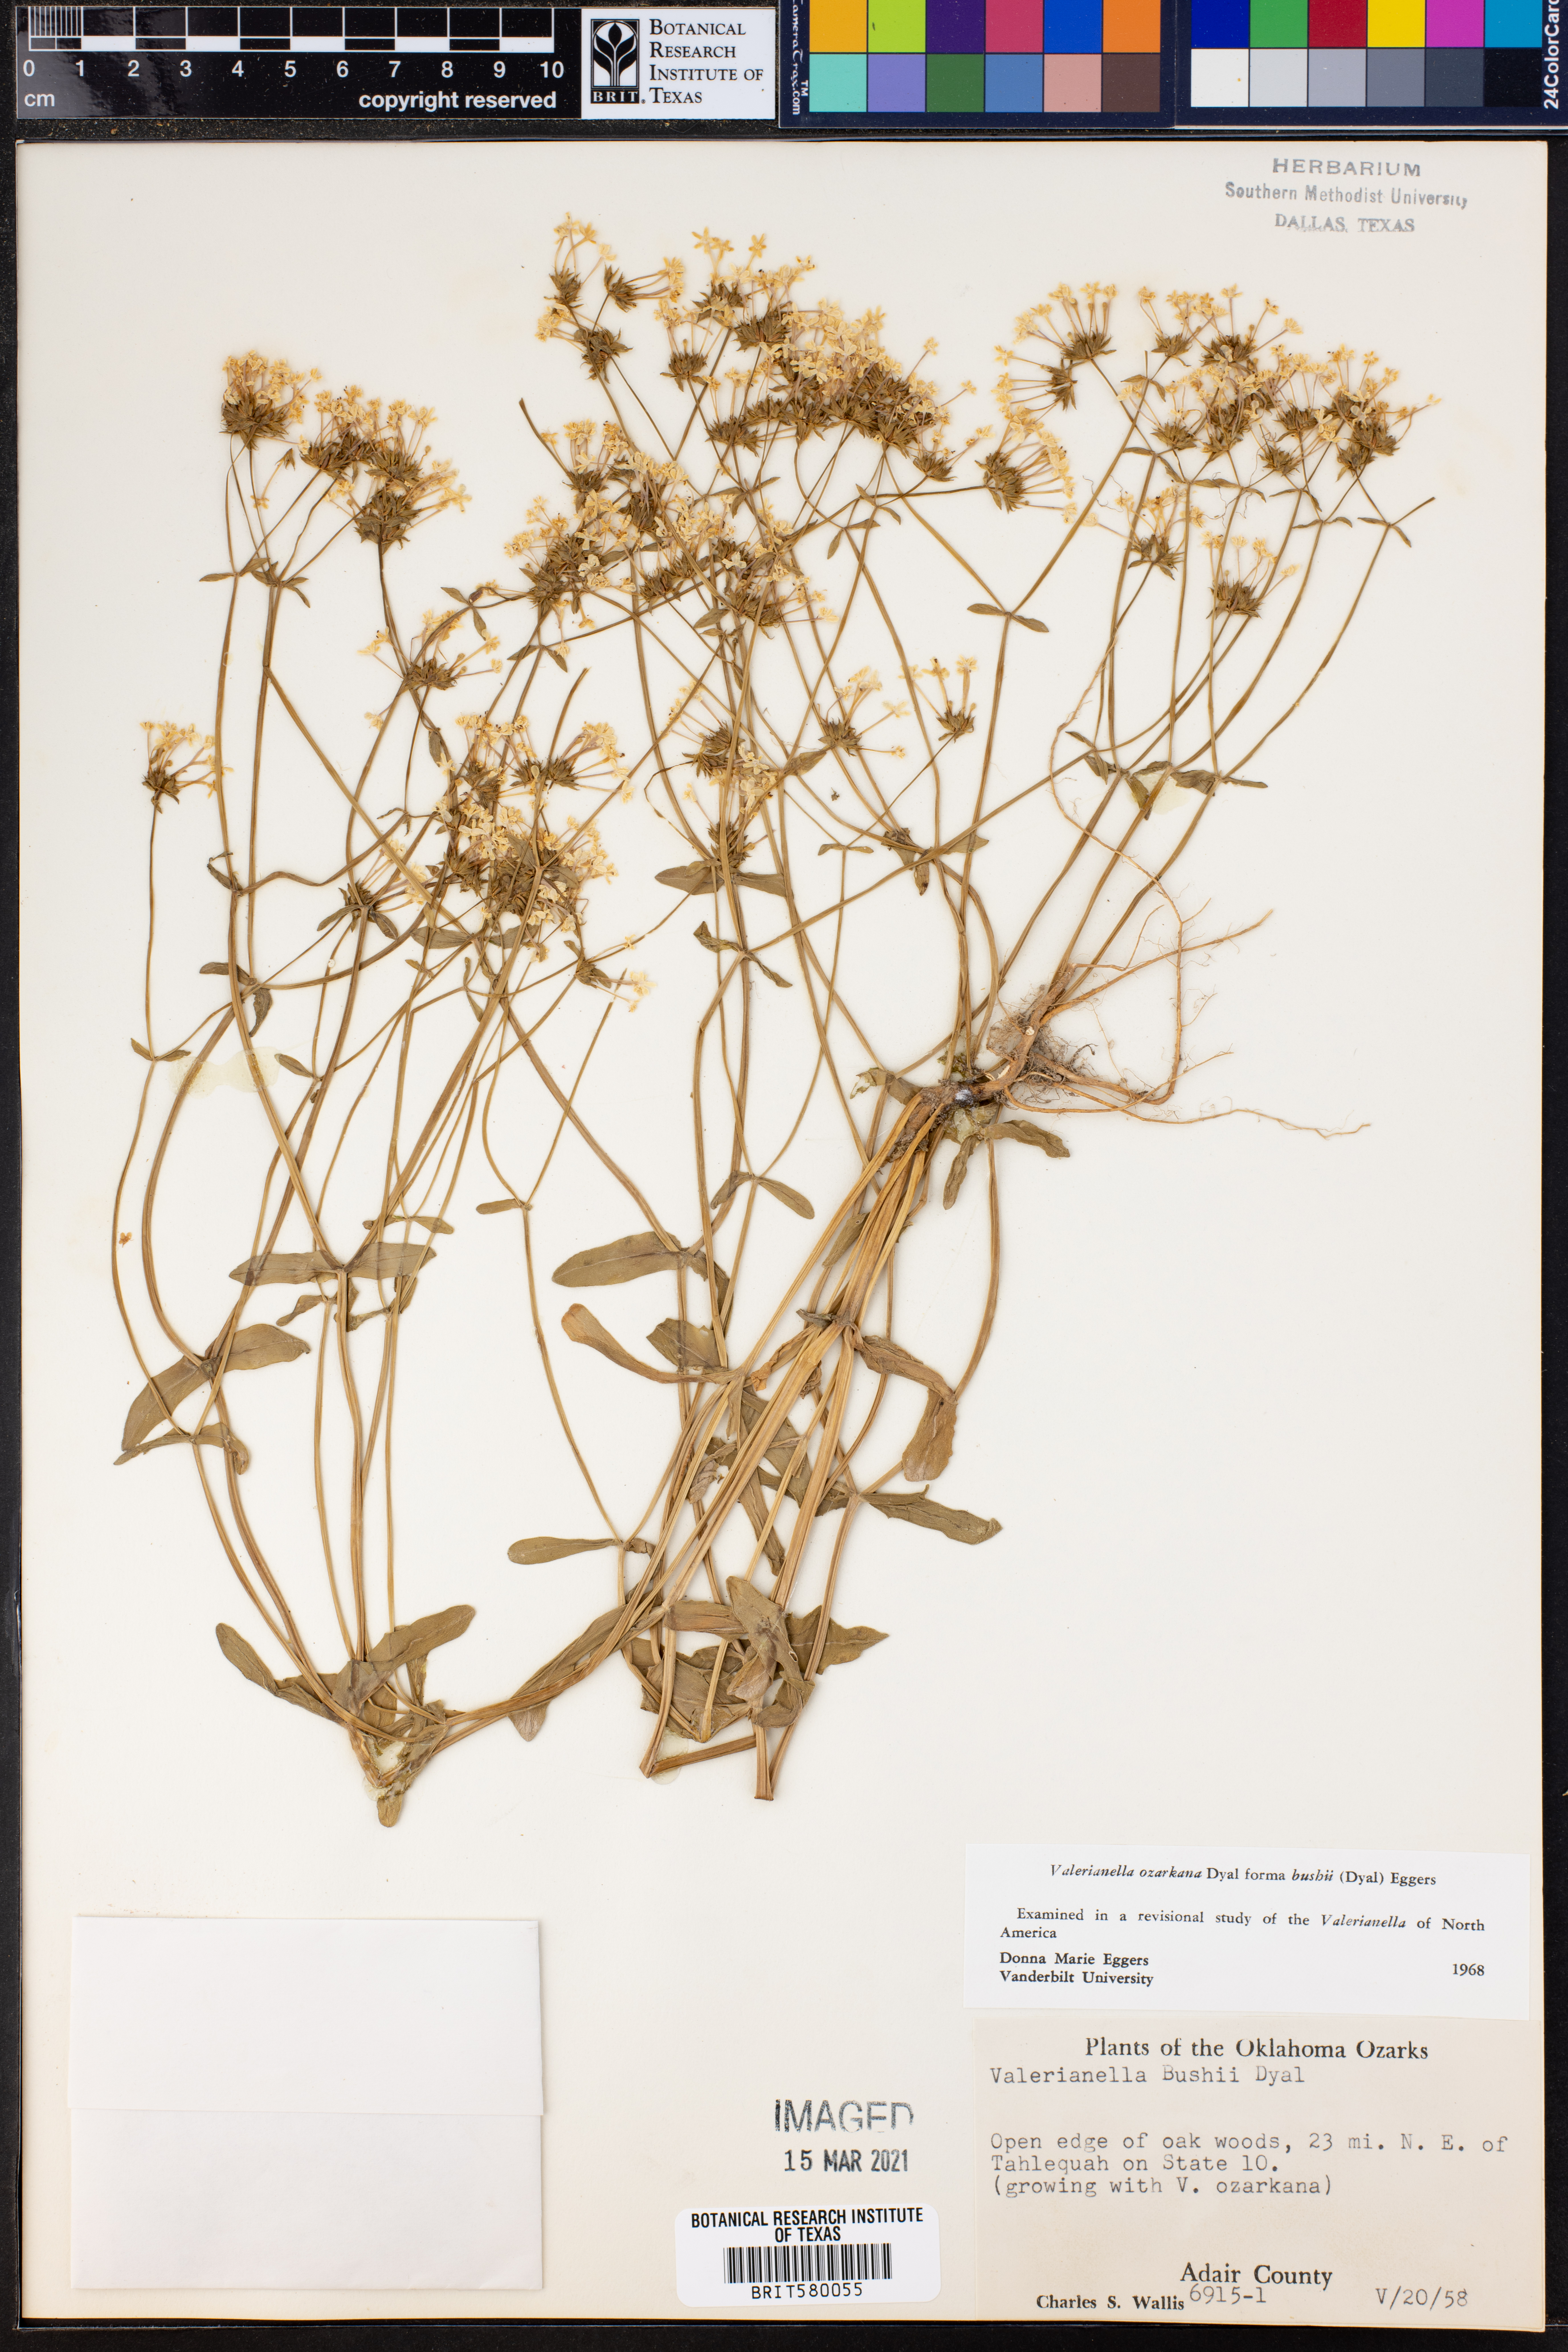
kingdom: Plantae
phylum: Tracheophyta
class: Magnoliopsida
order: Dipsacales
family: Caprifoliaceae
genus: Valerianella
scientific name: Valerianella ozarkana
